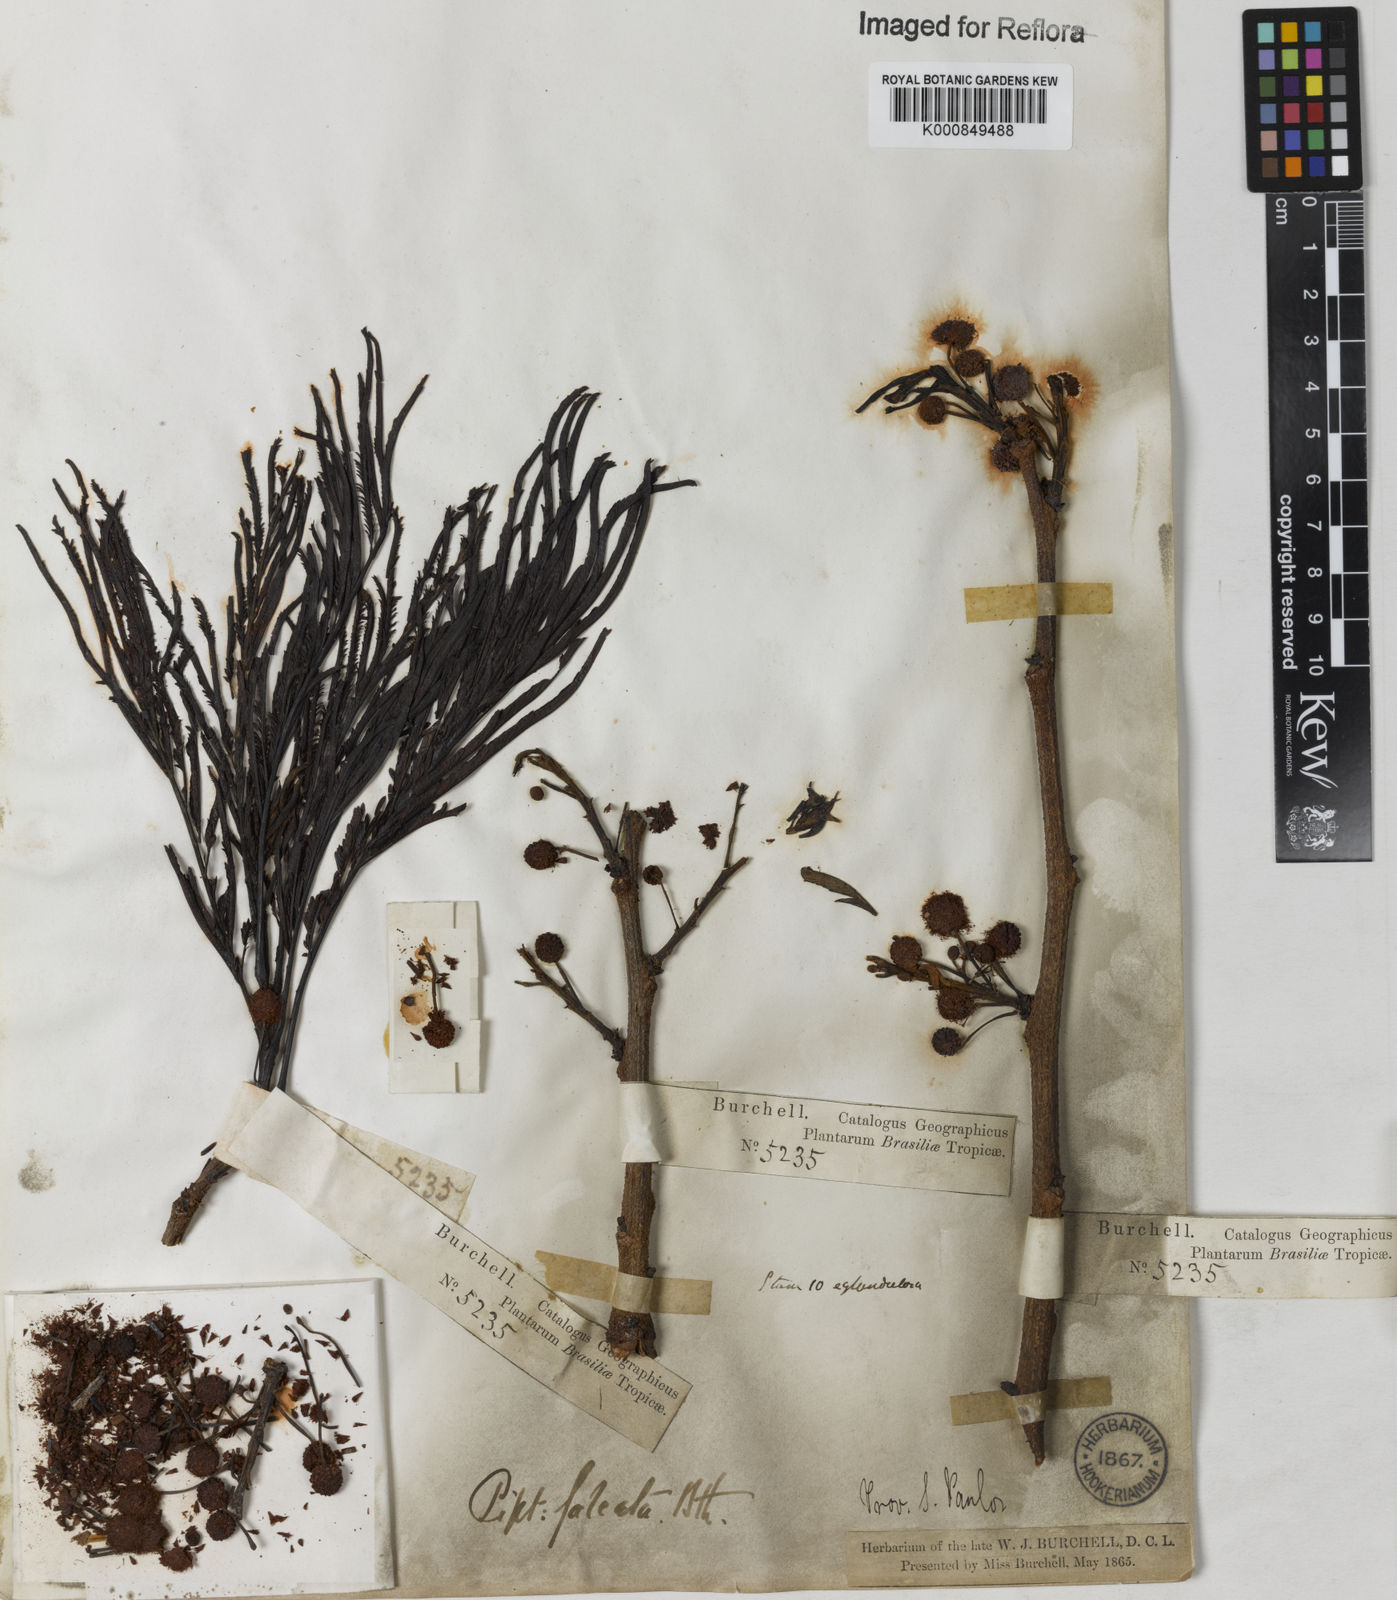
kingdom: Plantae
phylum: Tracheophyta
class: Magnoliopsida
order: Fabales
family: Fabaceae
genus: Anadenanthera
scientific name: Anadenanthera peregrina
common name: Cohoba
